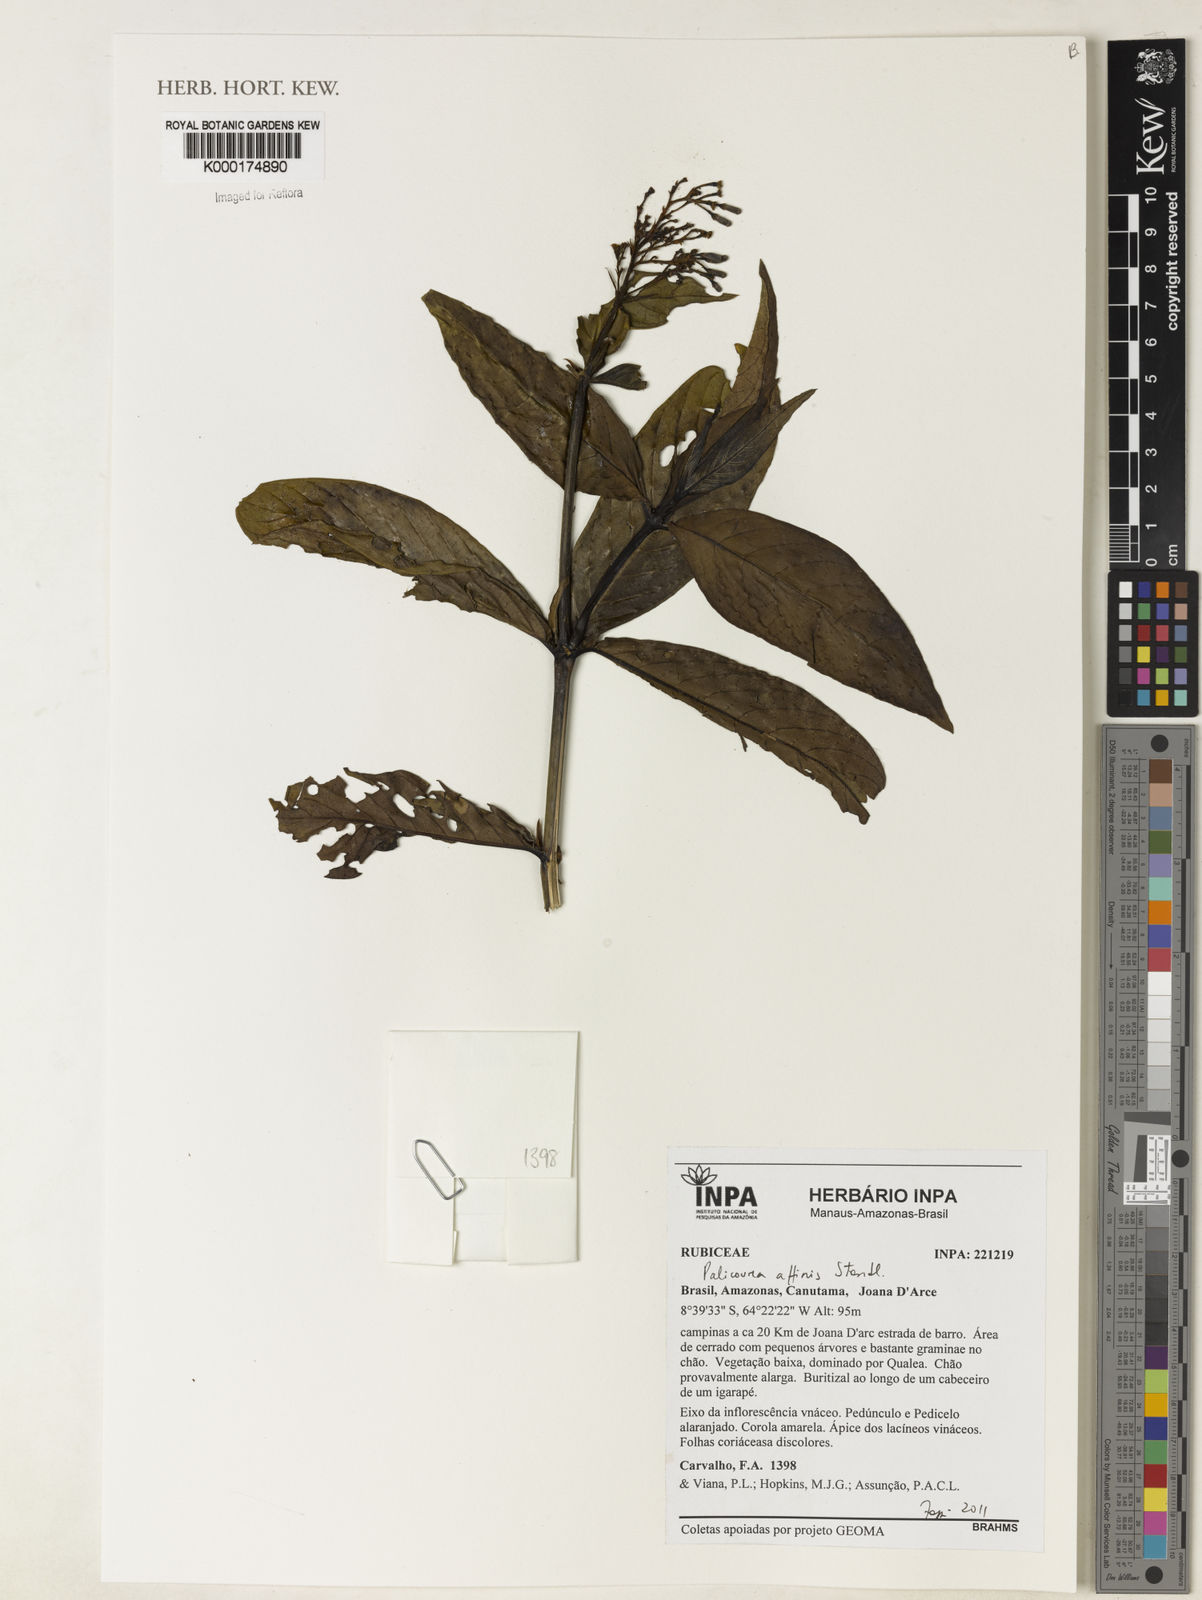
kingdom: Plantae
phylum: Tracheophyta
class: Magnoliopsida
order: Gentianales
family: Rubiaceae
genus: Palicourea
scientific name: Palicourea affinis
